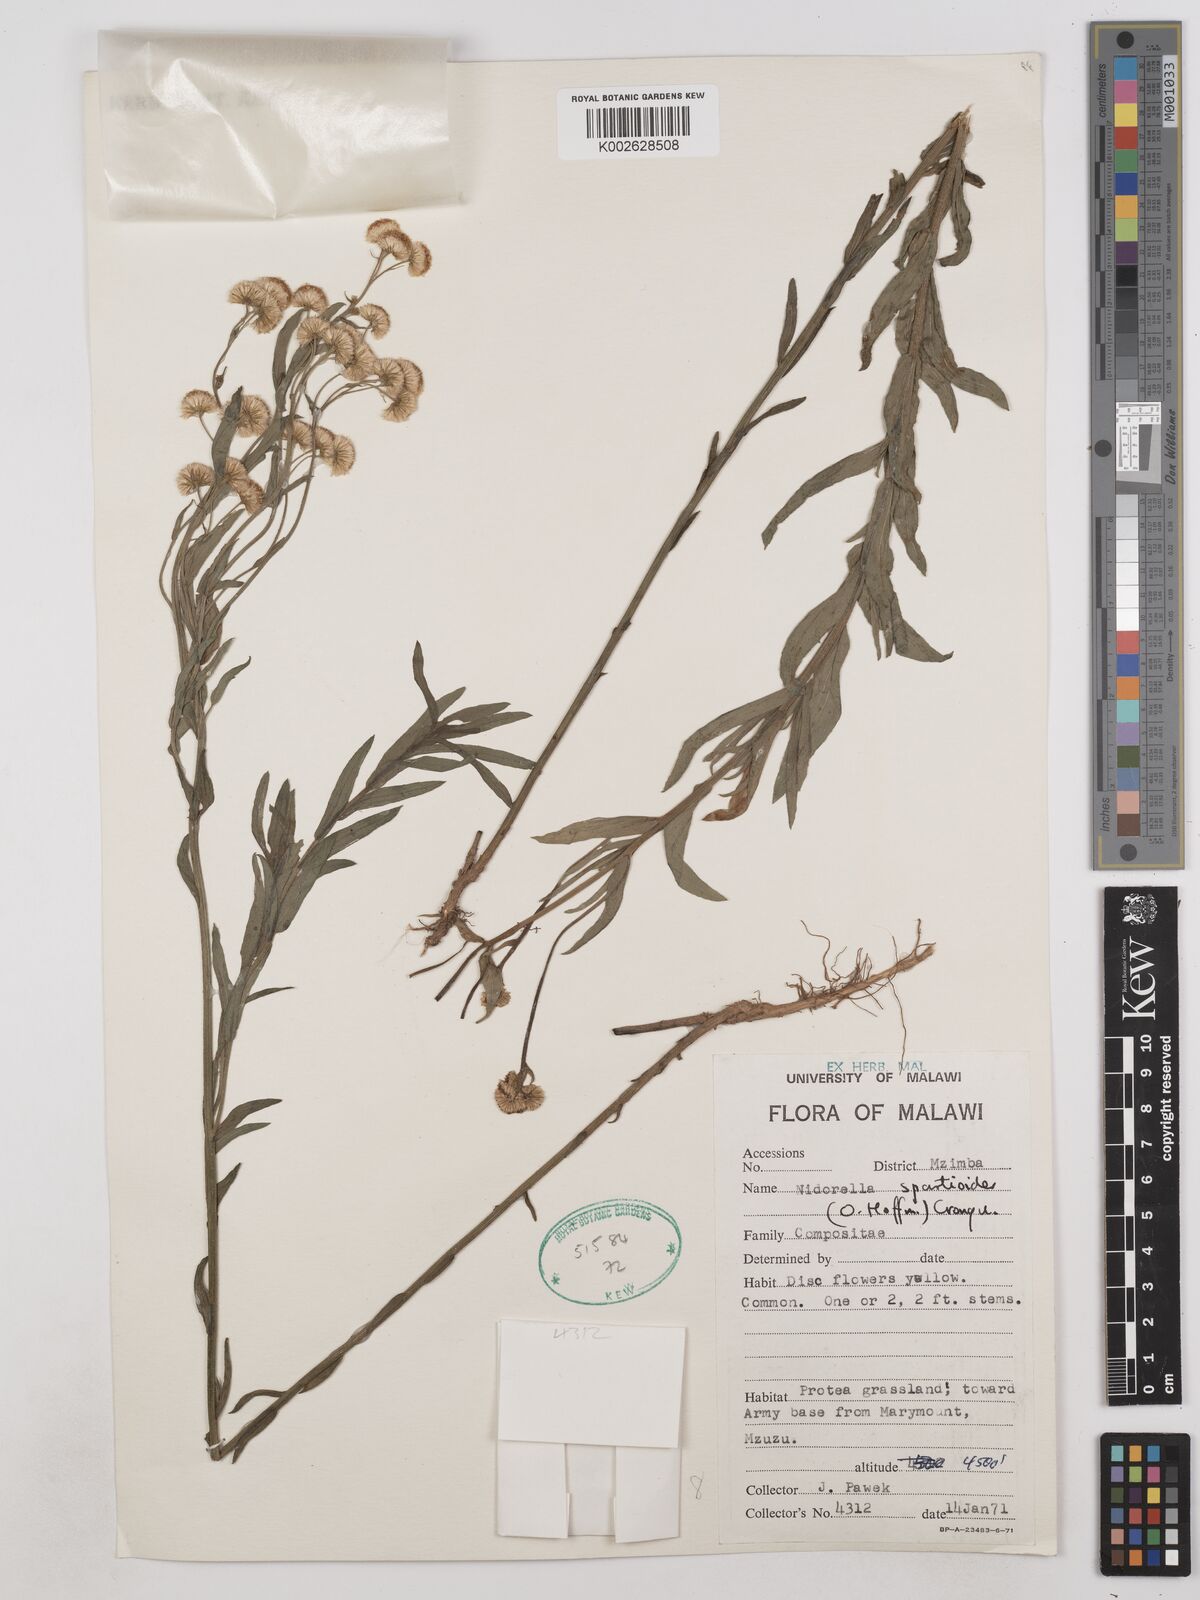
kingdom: Plantae
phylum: Tracheophyta
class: Magnoliopsida
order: Asterales
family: Asteraceae
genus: Nidorella
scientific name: Nidorella spartioides
